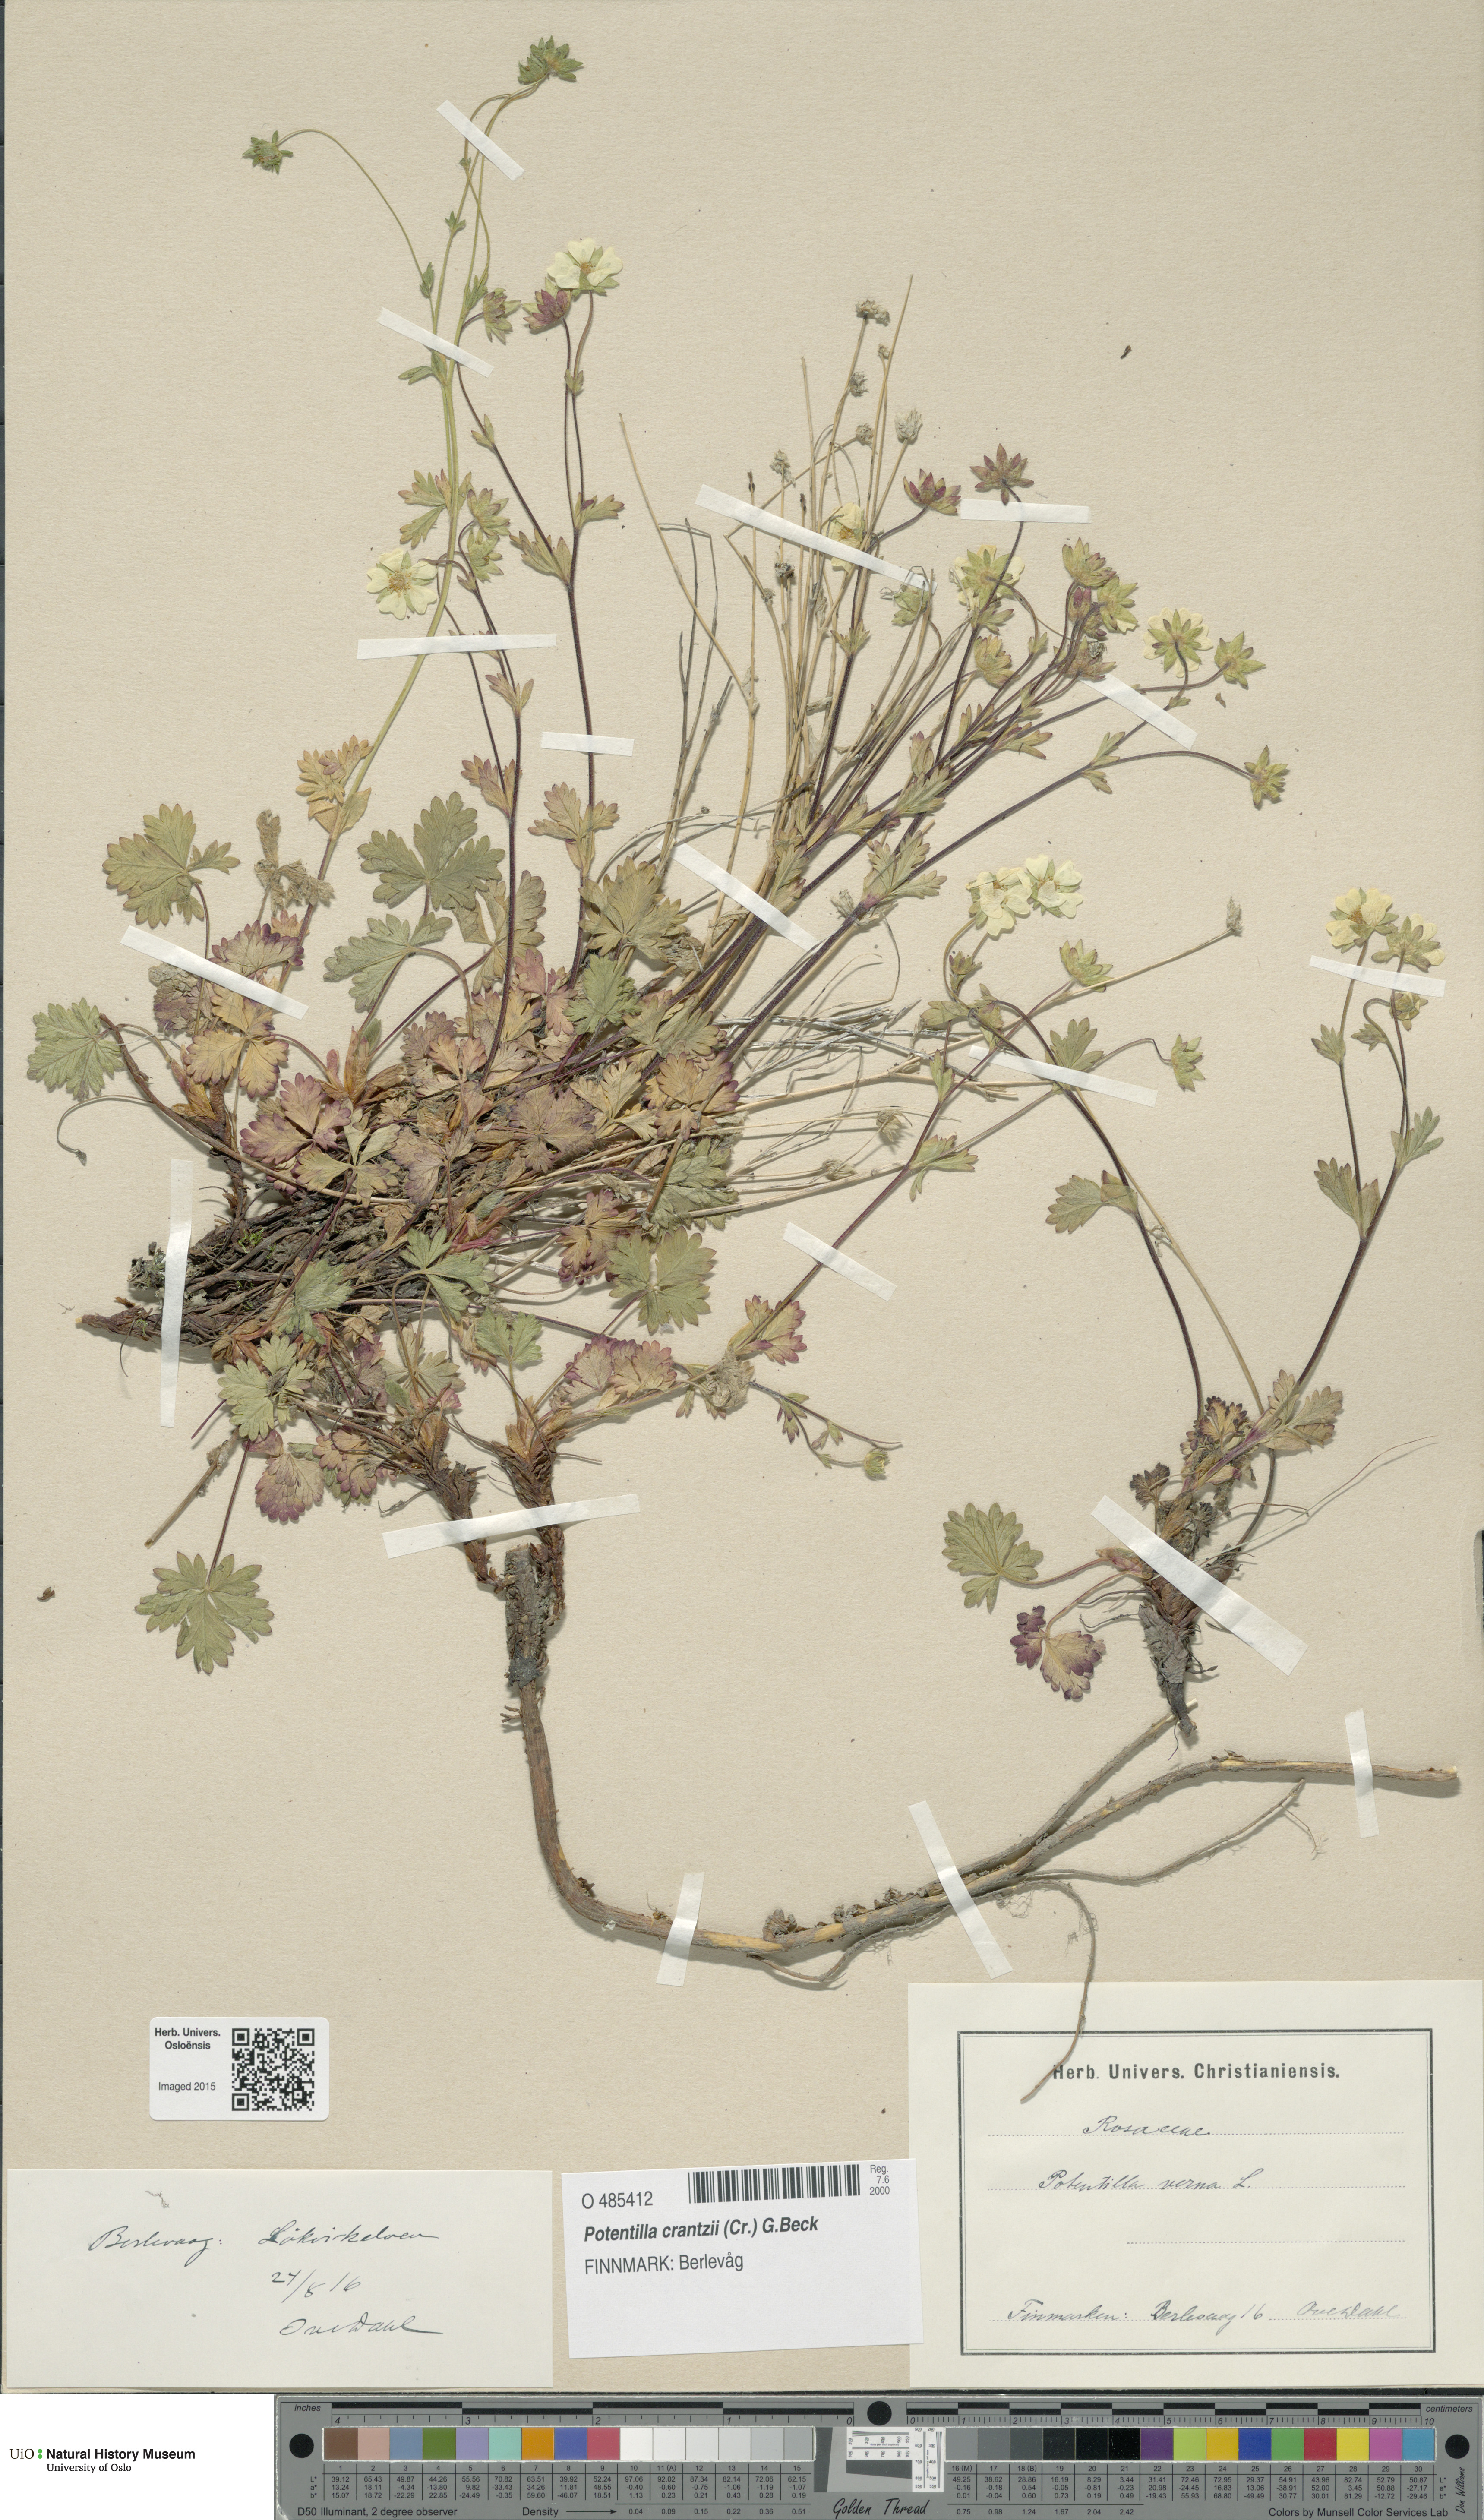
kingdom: Plantae
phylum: Tracheophyta
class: Magnoliopsida
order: Rosales
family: Rosaceae
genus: Potentilla
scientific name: Potentilla verna
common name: Spring cinquefoil
